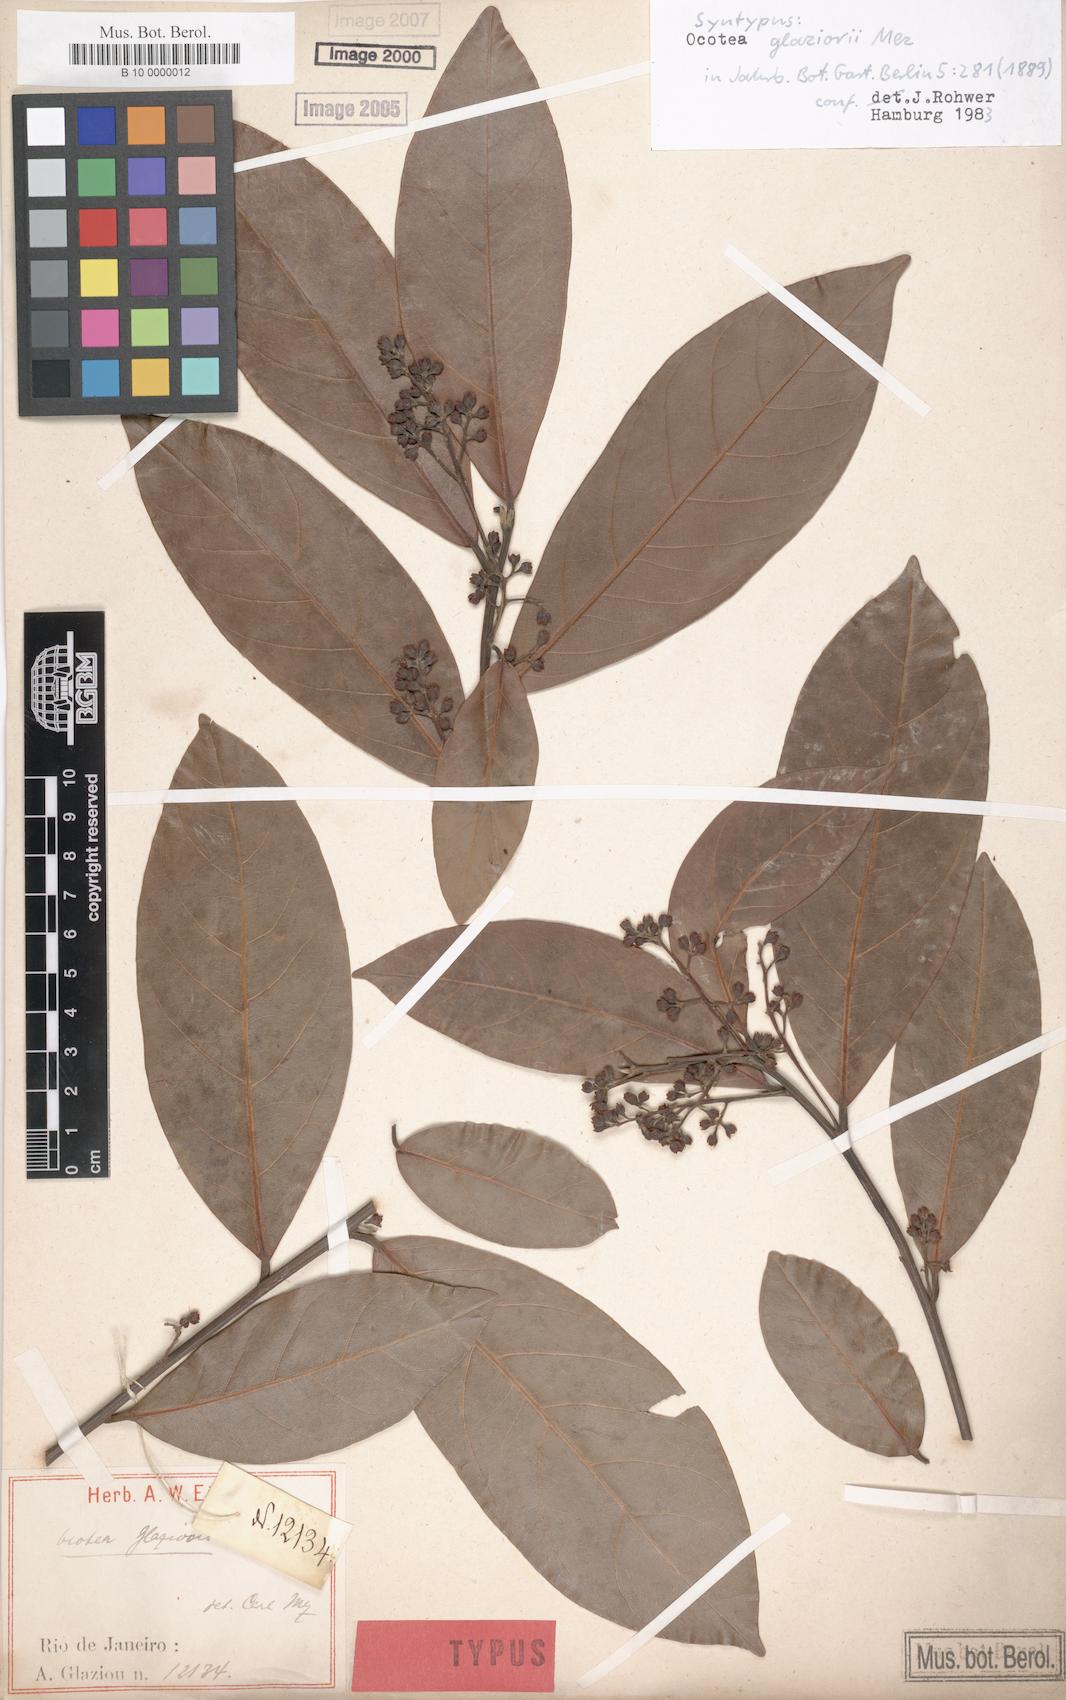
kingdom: Plantae
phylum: Tracheophyta
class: Magnoliopsida
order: Laurales
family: Lauraceae
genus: Ocotea
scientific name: Ocotea glaziovii
